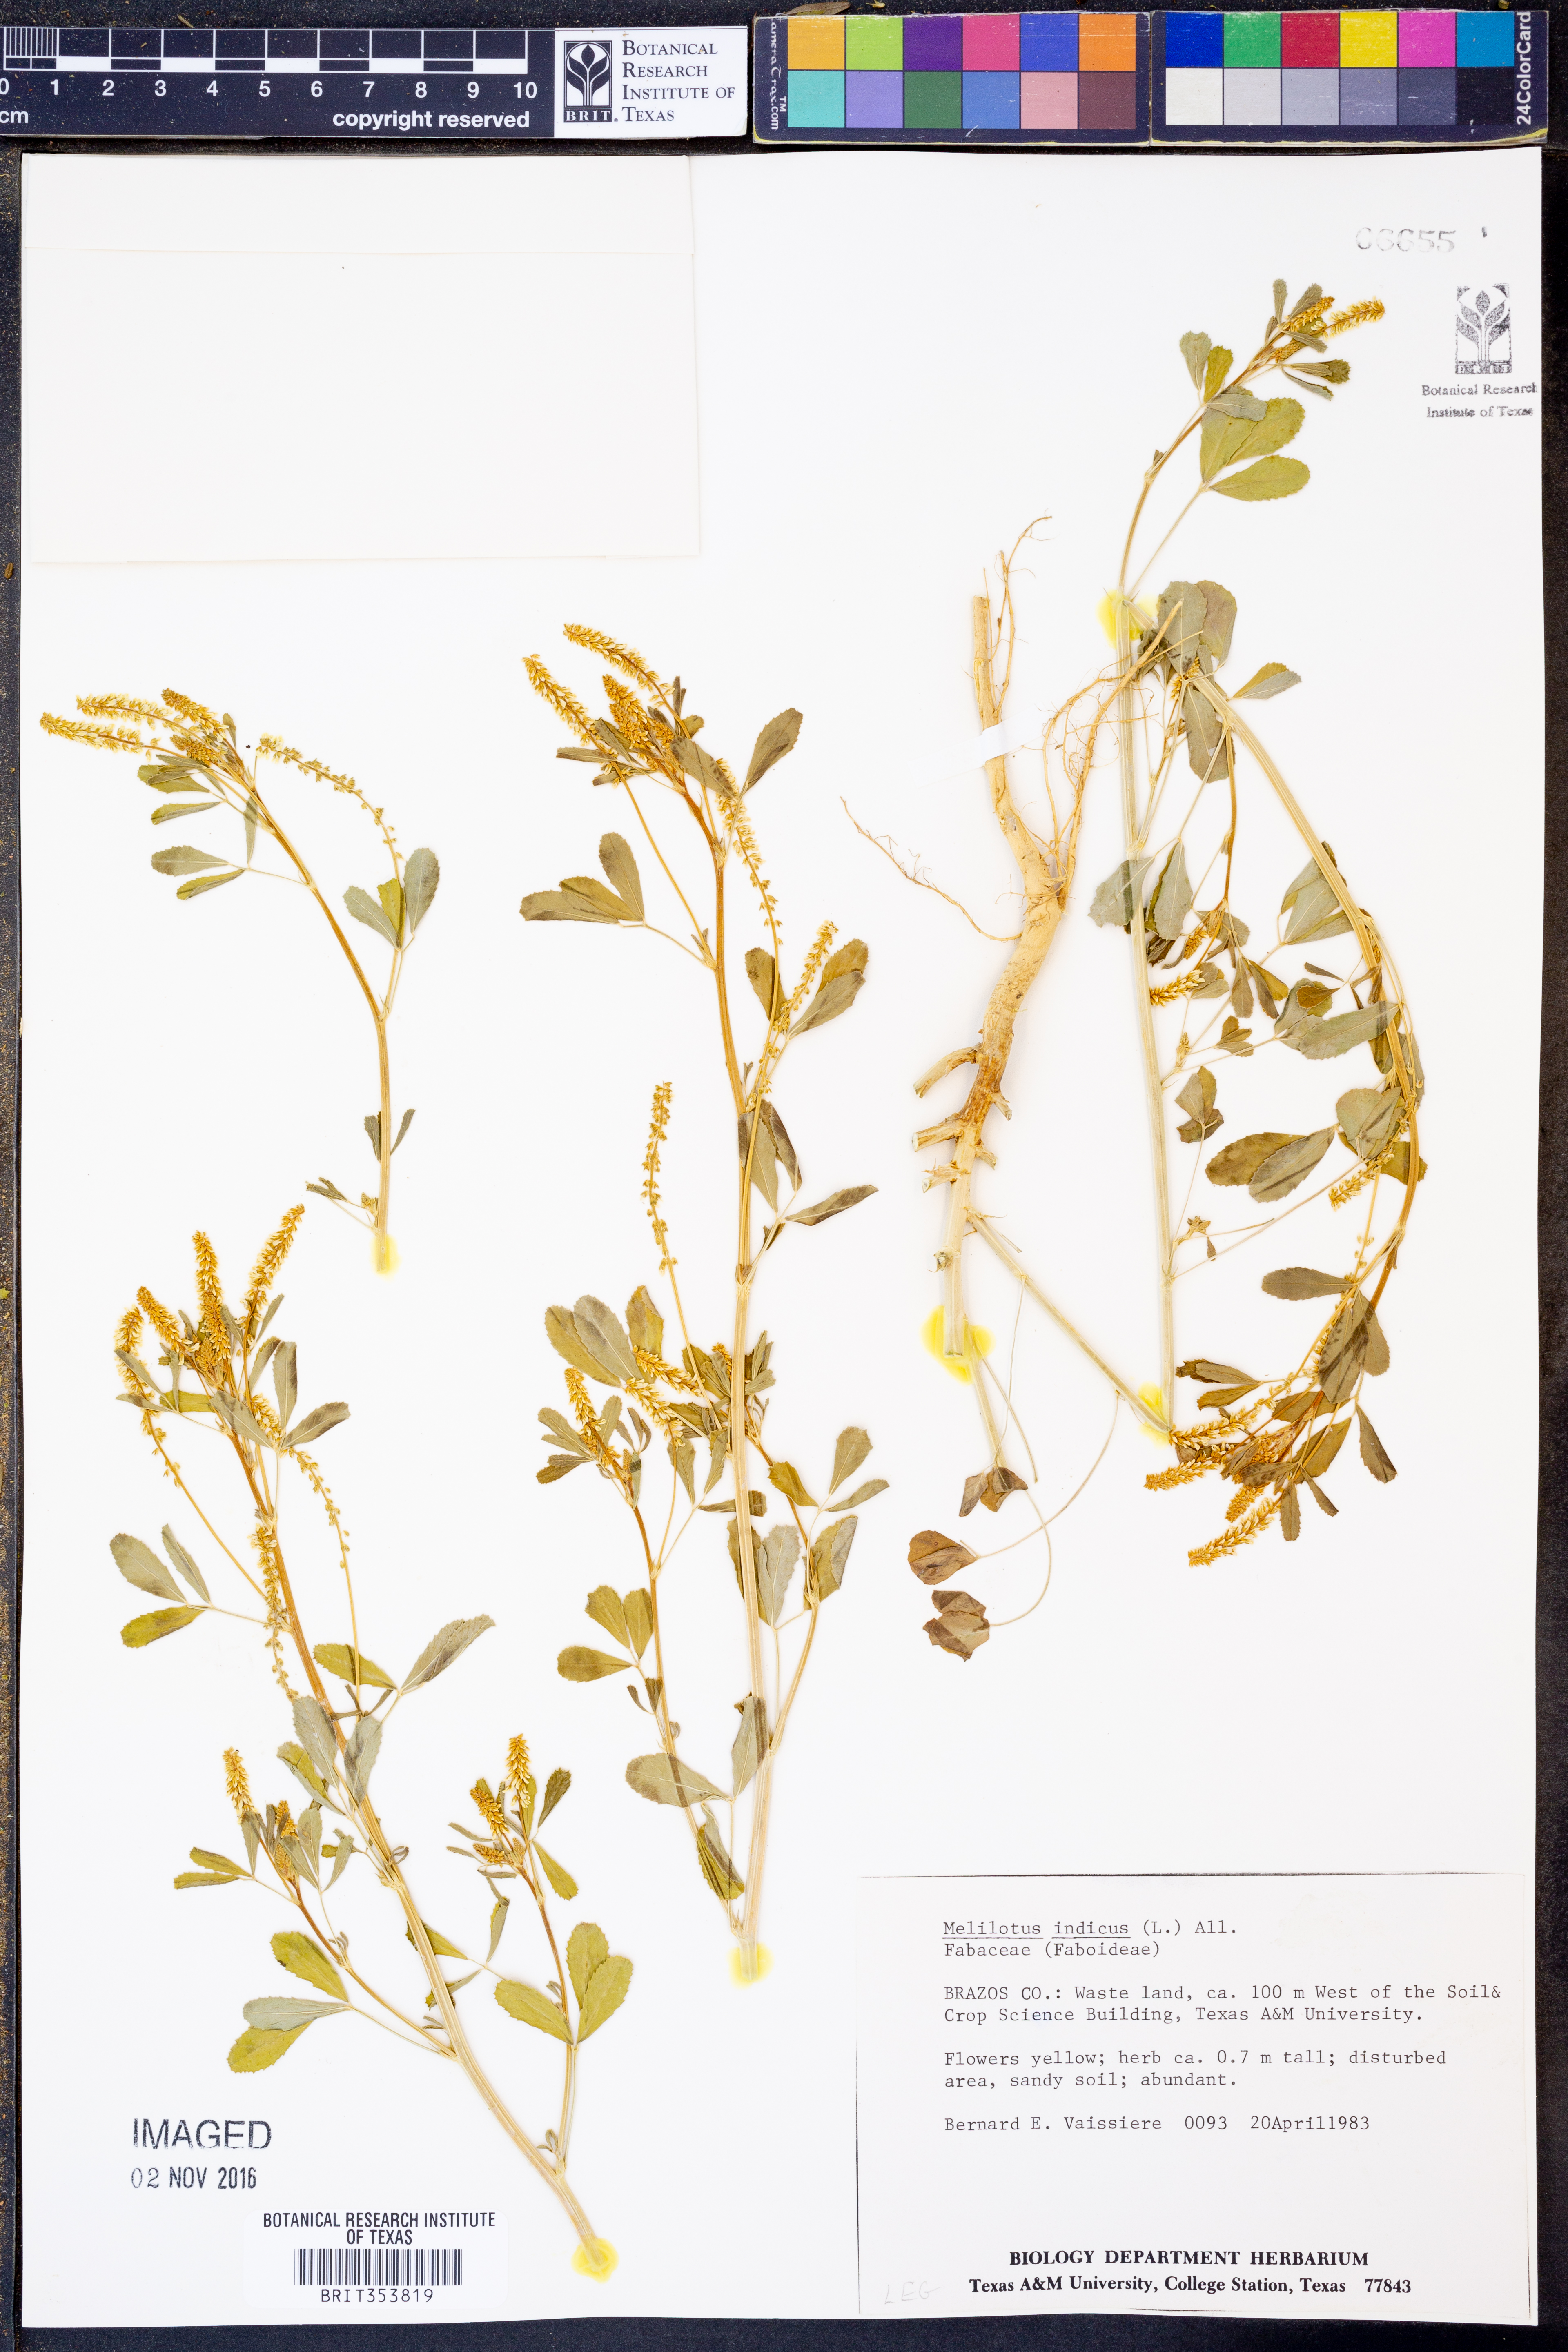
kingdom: Plantae
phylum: Tracheophyta
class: Magnoliopsida
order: Fabales
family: Fabaceae
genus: Melilotus
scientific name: Melilotus indicus
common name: Small melilot
